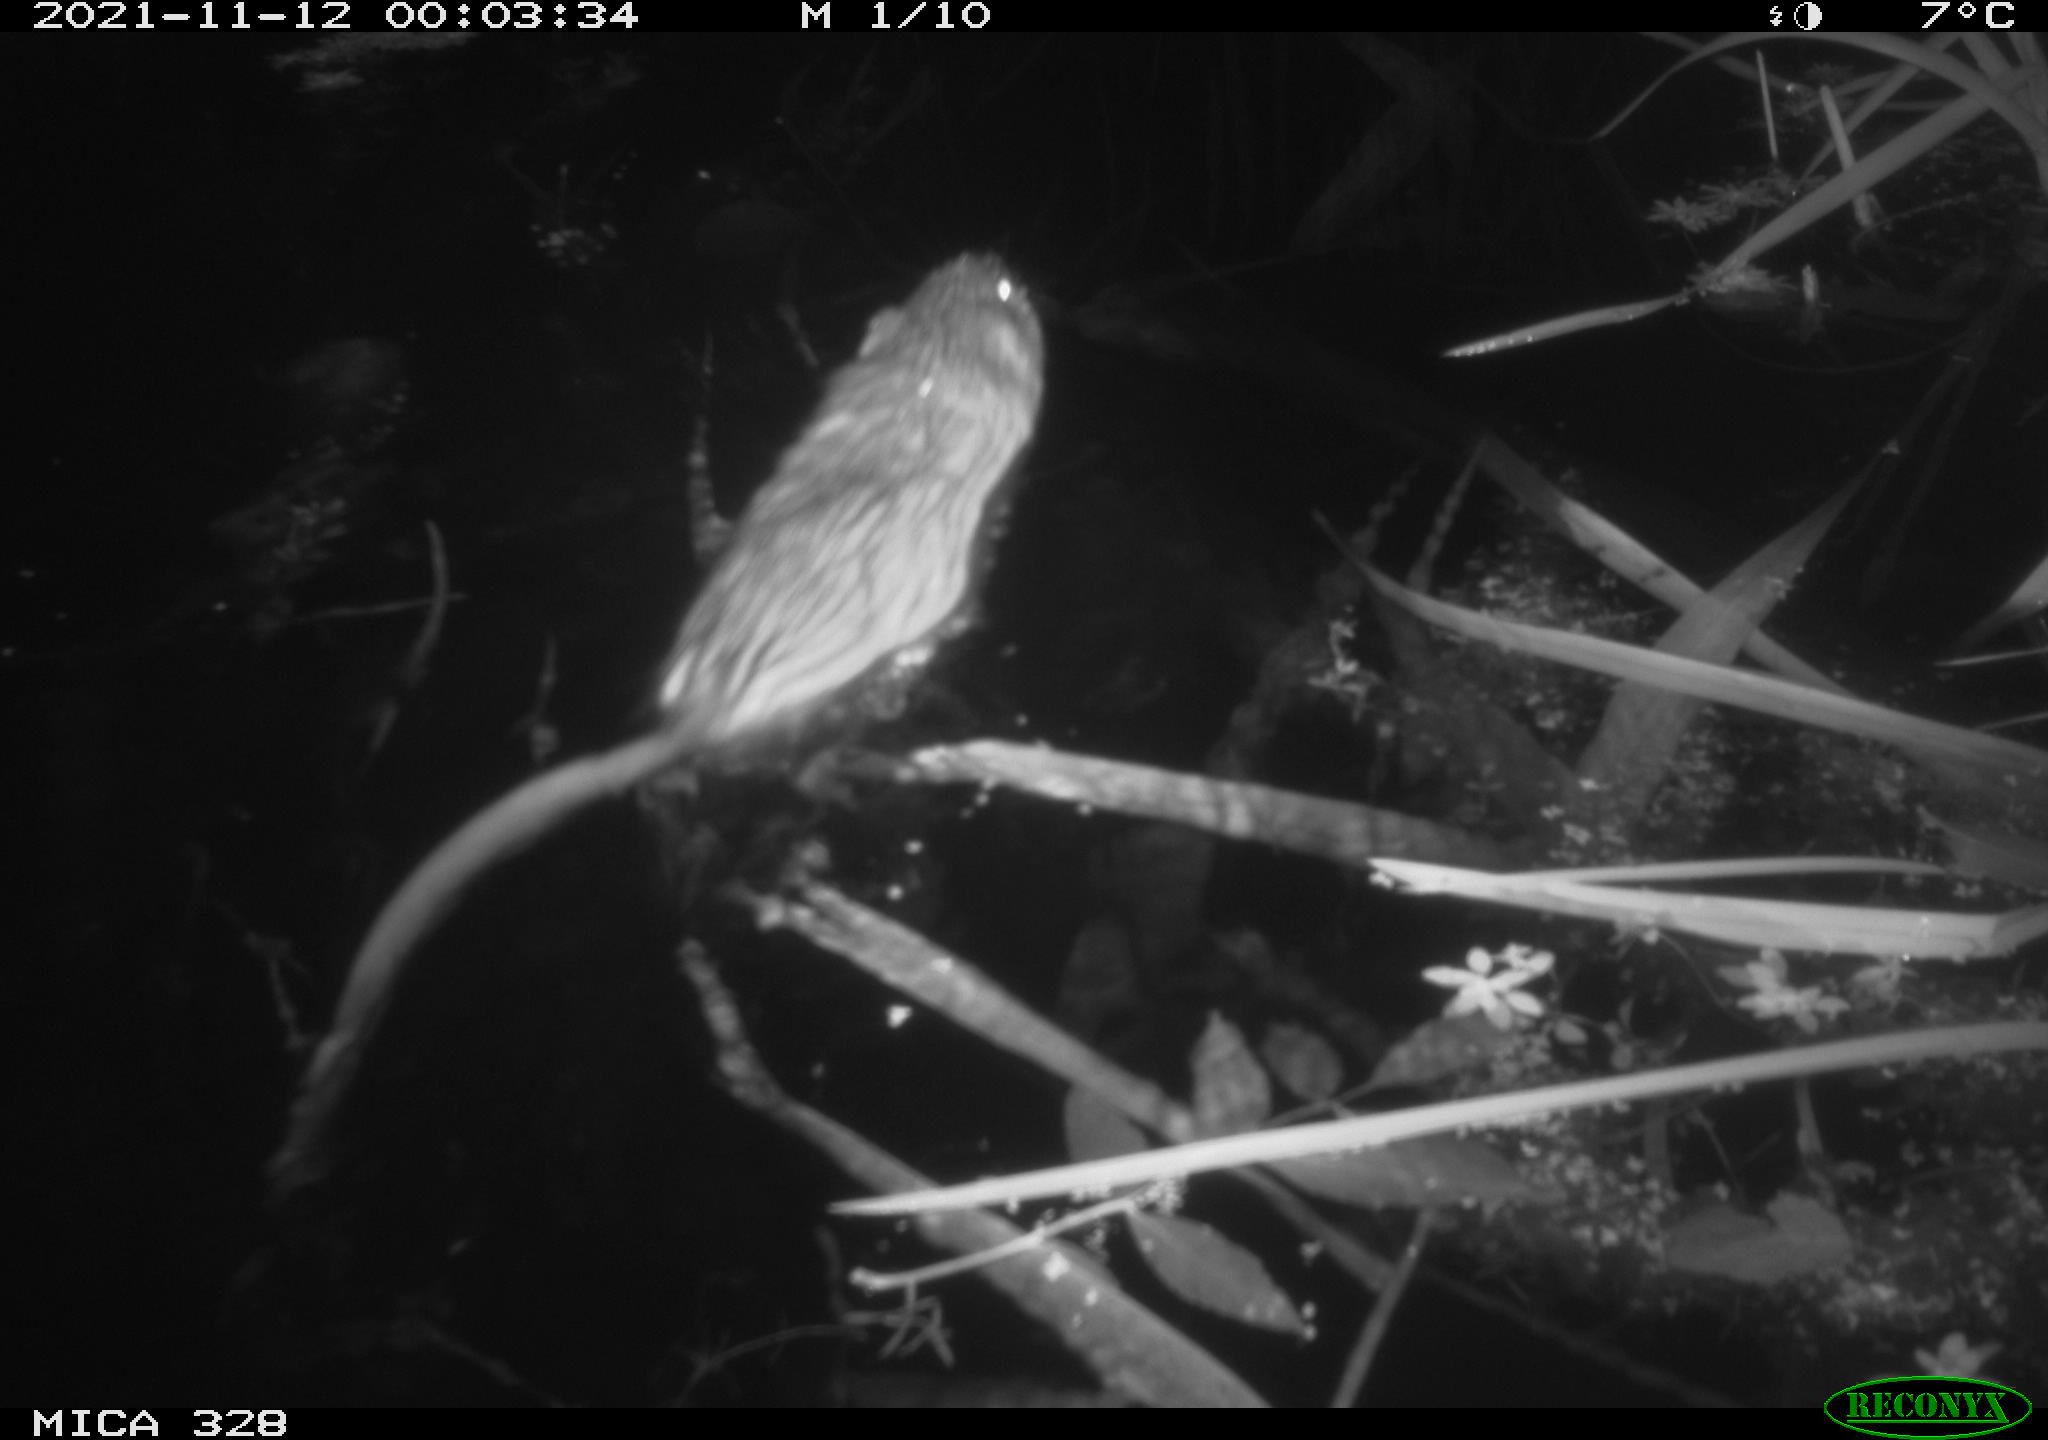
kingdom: Animalia
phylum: Chordata
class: Mammalia
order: Rodentia
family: Cricetidae
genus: Ondatra
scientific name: Ondatra zibethicus
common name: Muskrat
